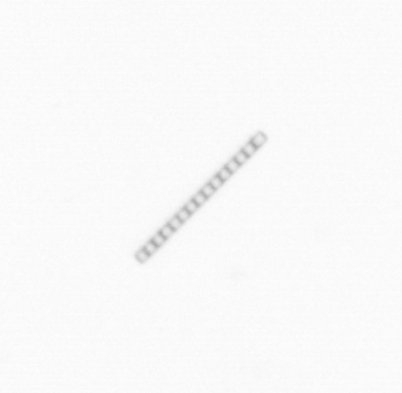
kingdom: Chromista
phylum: Ochrophyta
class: Bacillariophyceae
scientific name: Bacillariophyceae
